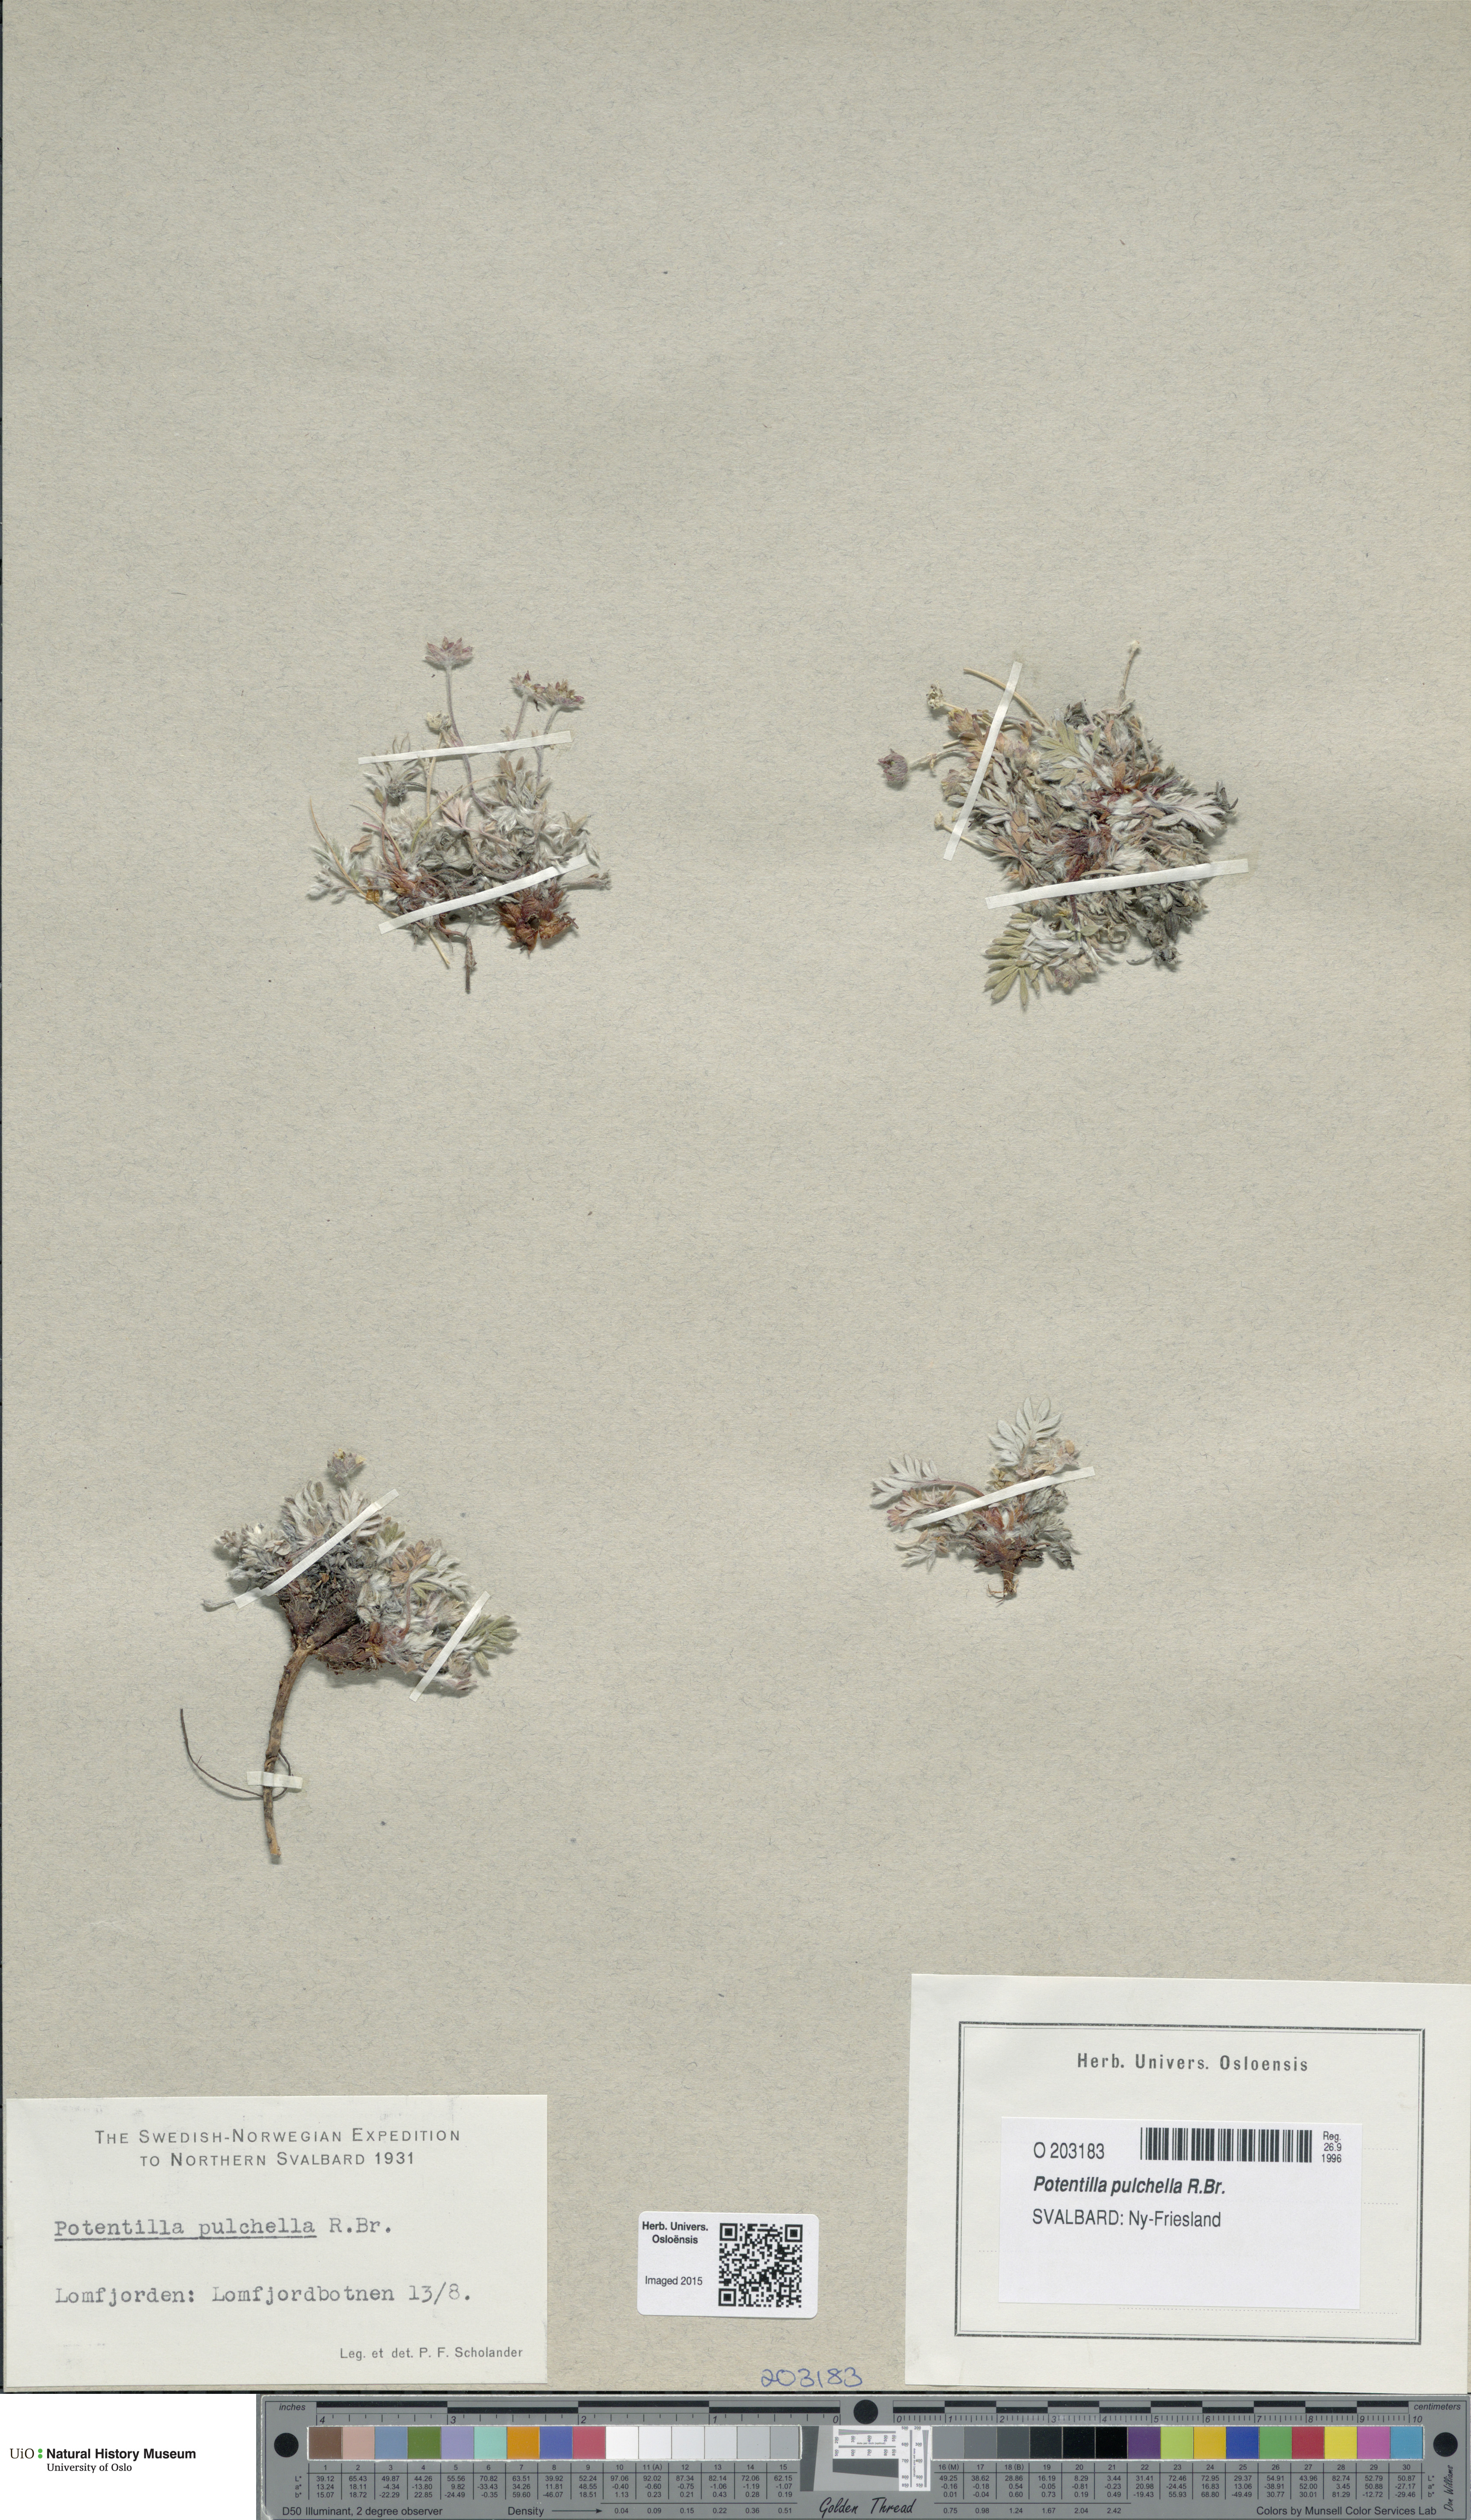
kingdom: Plantae
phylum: Tracheophyta
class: Magnoliopsida
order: Rosales
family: Rosaceae
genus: Potentilla
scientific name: Potentilla pulchella
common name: Pretty cinquefoil
